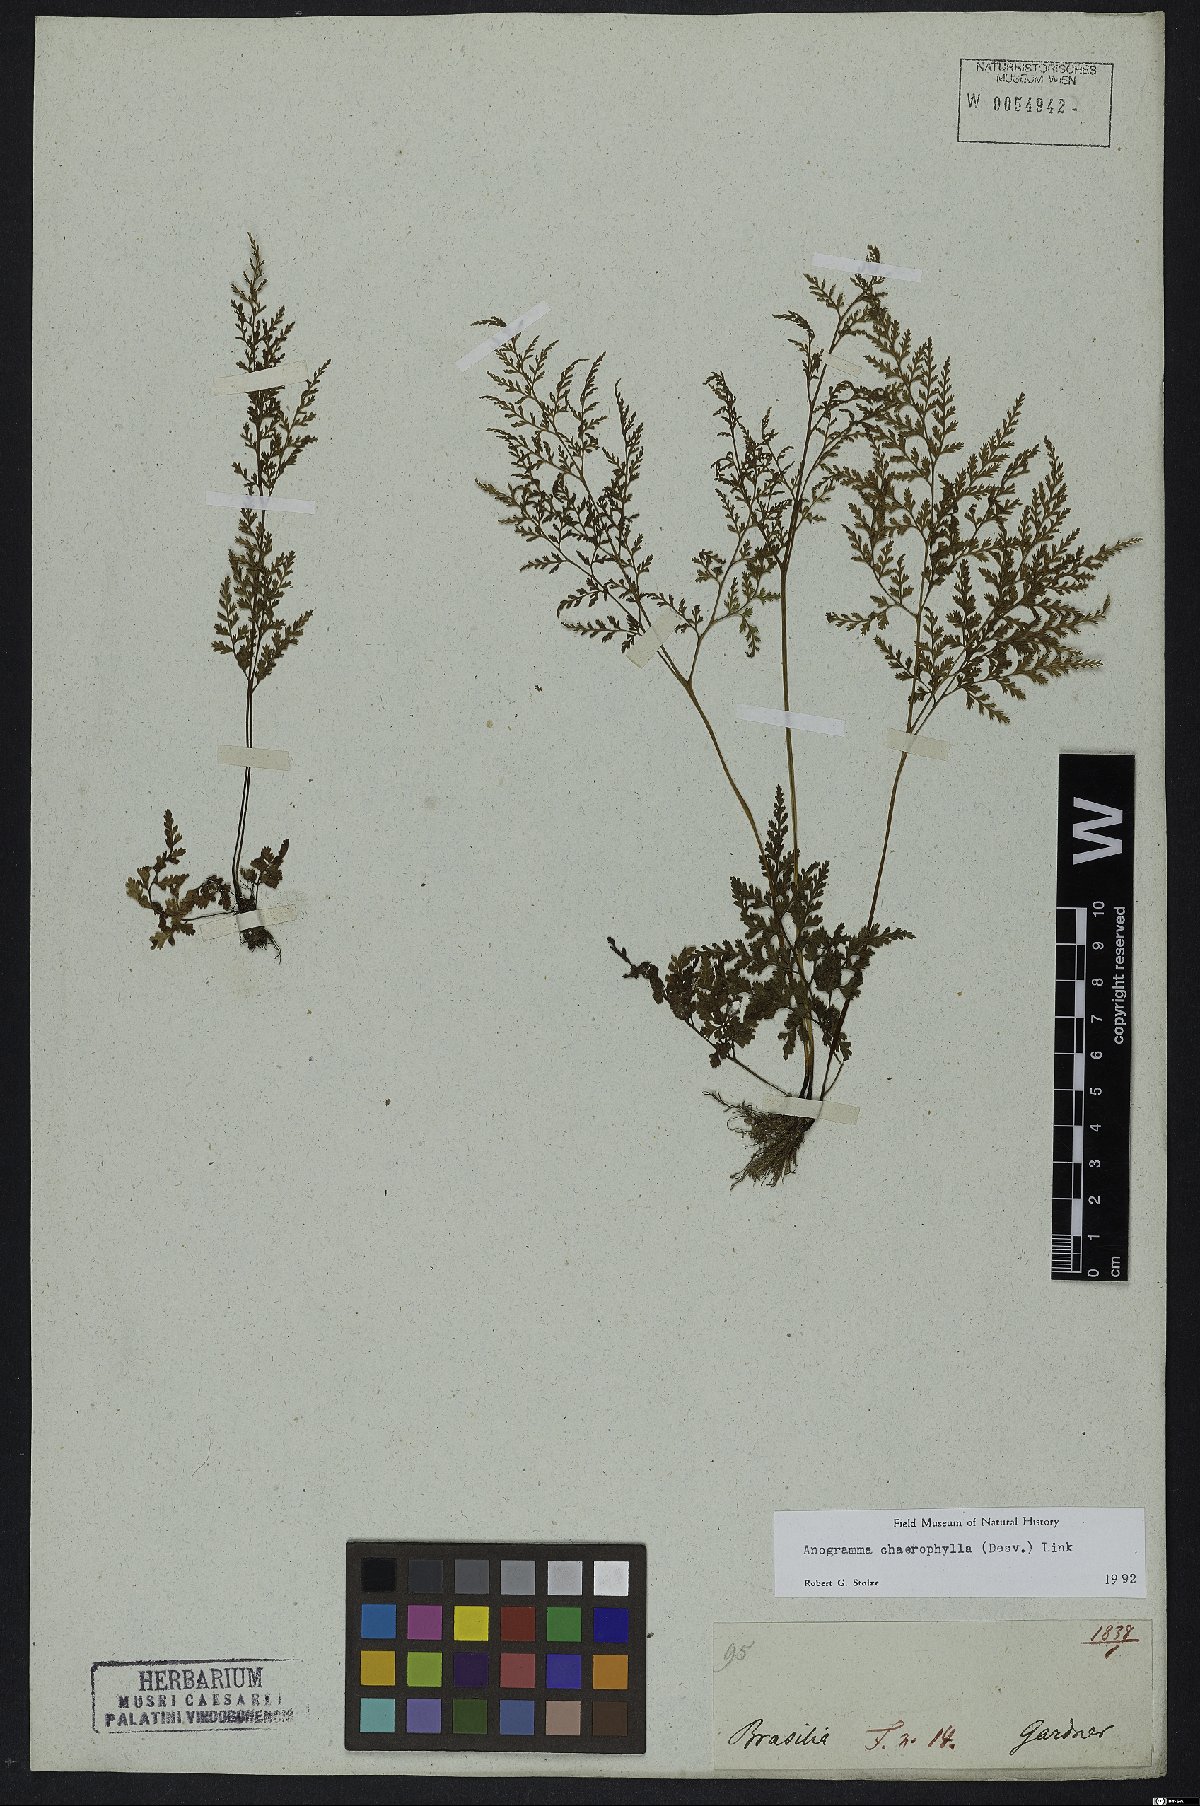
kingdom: Plantae
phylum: Tracheophyta
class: Polypodiopsida
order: Polypodiales
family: Pteridaceae
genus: Gastoniella
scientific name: Gastoniella chaerophylla
